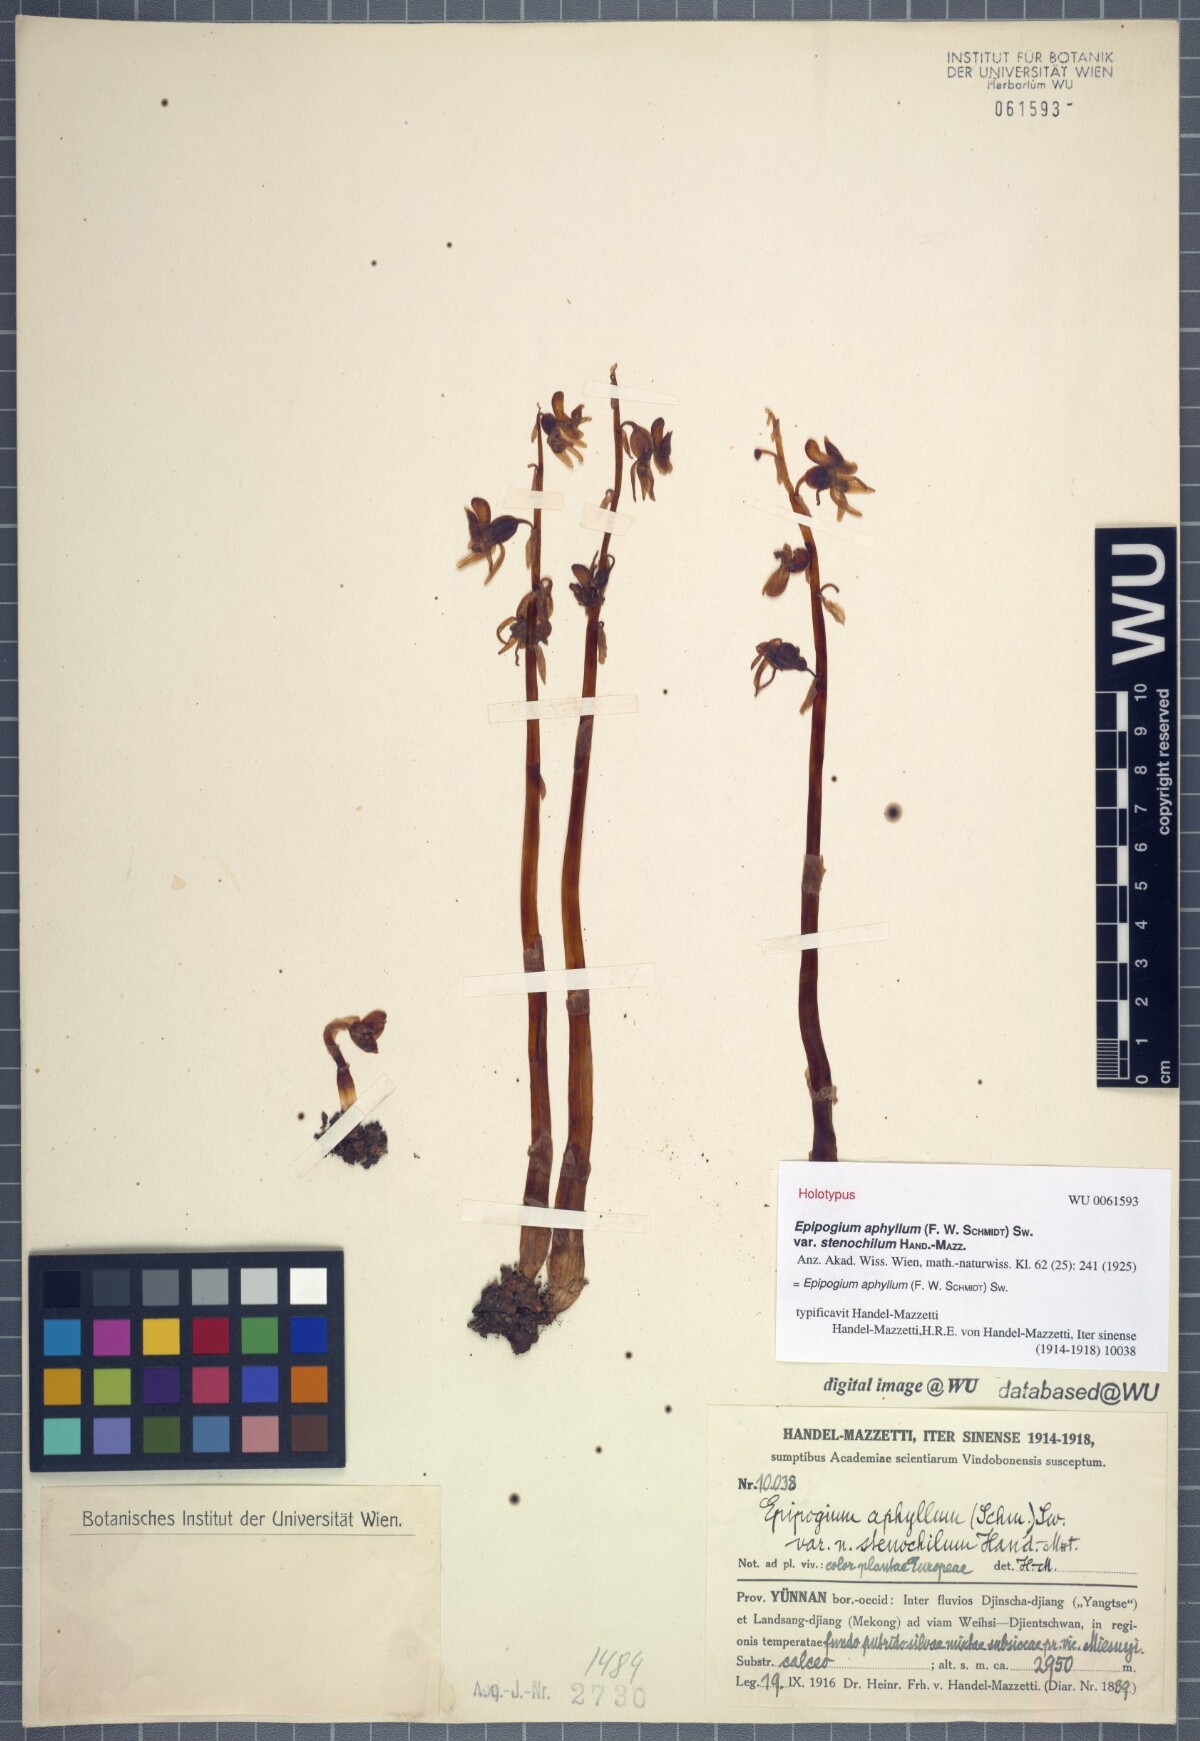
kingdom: Plantae
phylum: Tracheophyta
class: Liliopsida
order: Asparagales
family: Orchidaceae
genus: Epipogium
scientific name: Epipogium aphyllum
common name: Ghost orchid
